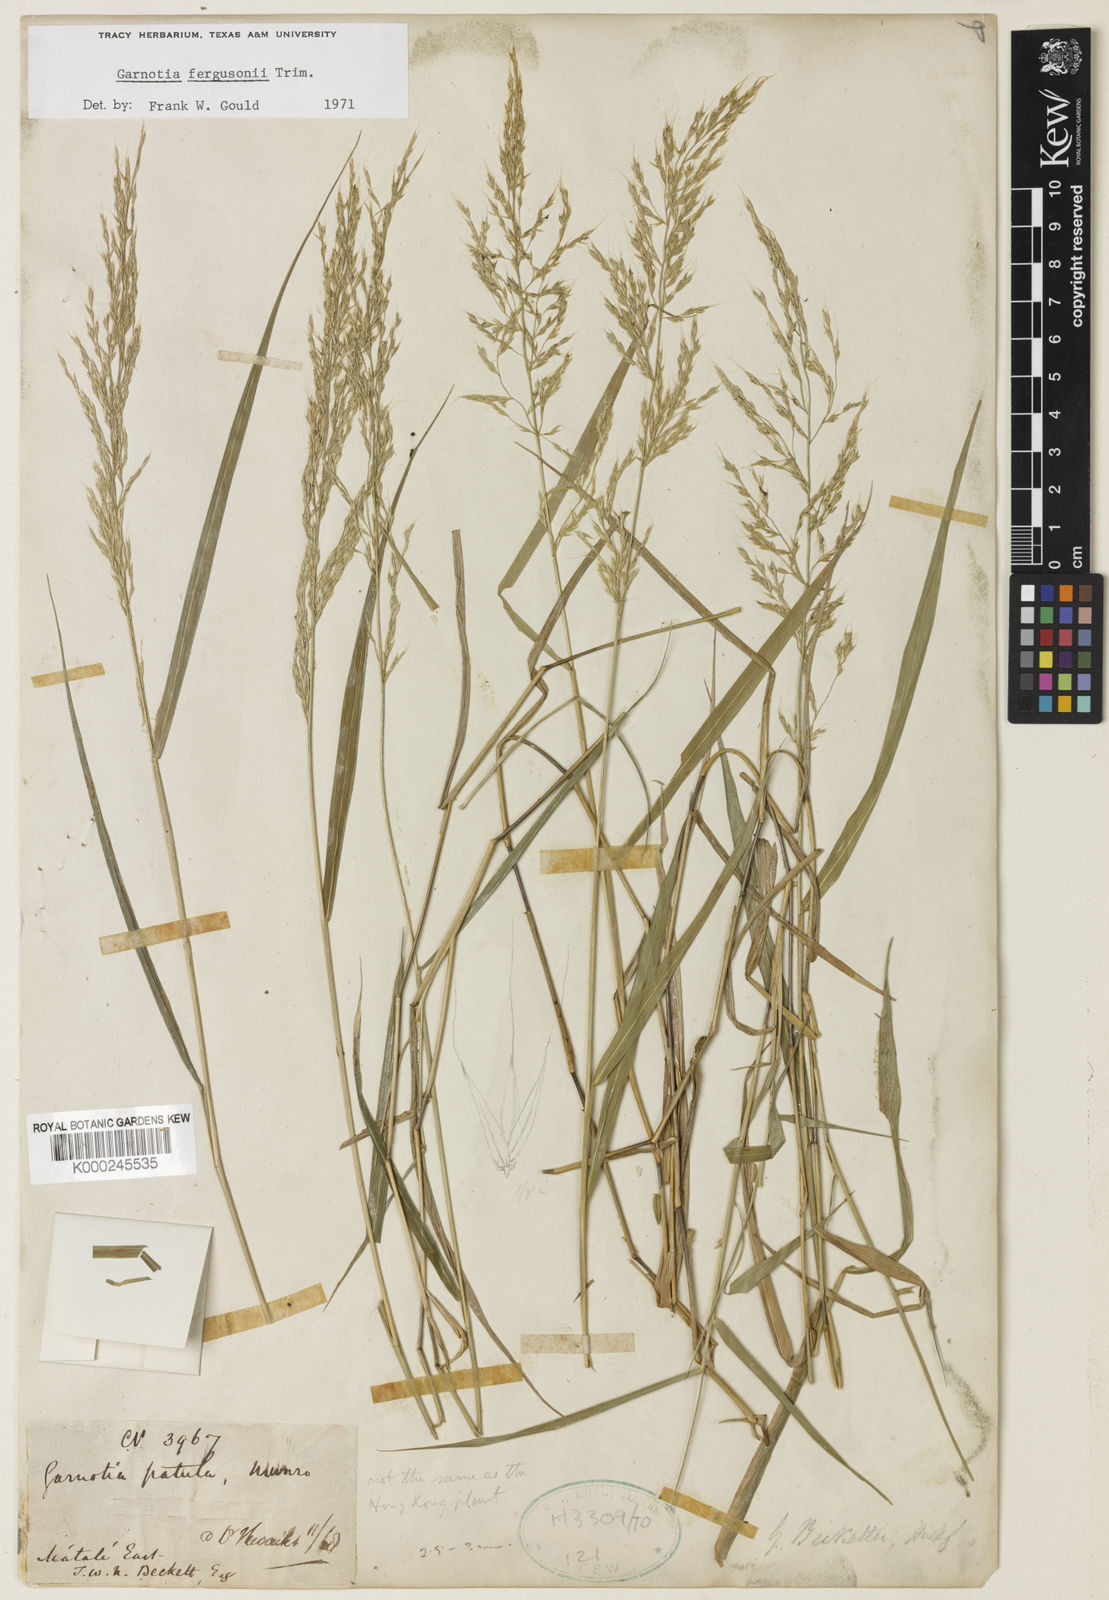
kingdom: Plantae
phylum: Tracheophyta
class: Liliopsida
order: Poales
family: Poaceae
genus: Garnotia
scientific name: Garnotia fergusonii
